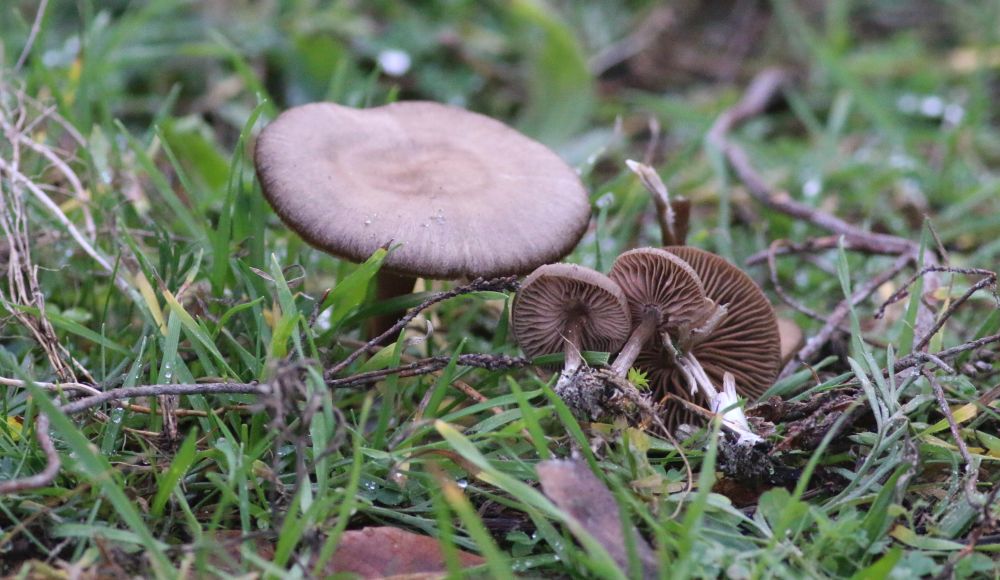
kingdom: Fungi
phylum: Basidiomycota
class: Agaricomycetes
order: Agaricales
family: Entolomataceae
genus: Entoloma
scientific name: Entoloma sericeum
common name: silkeglinsende rødblad
